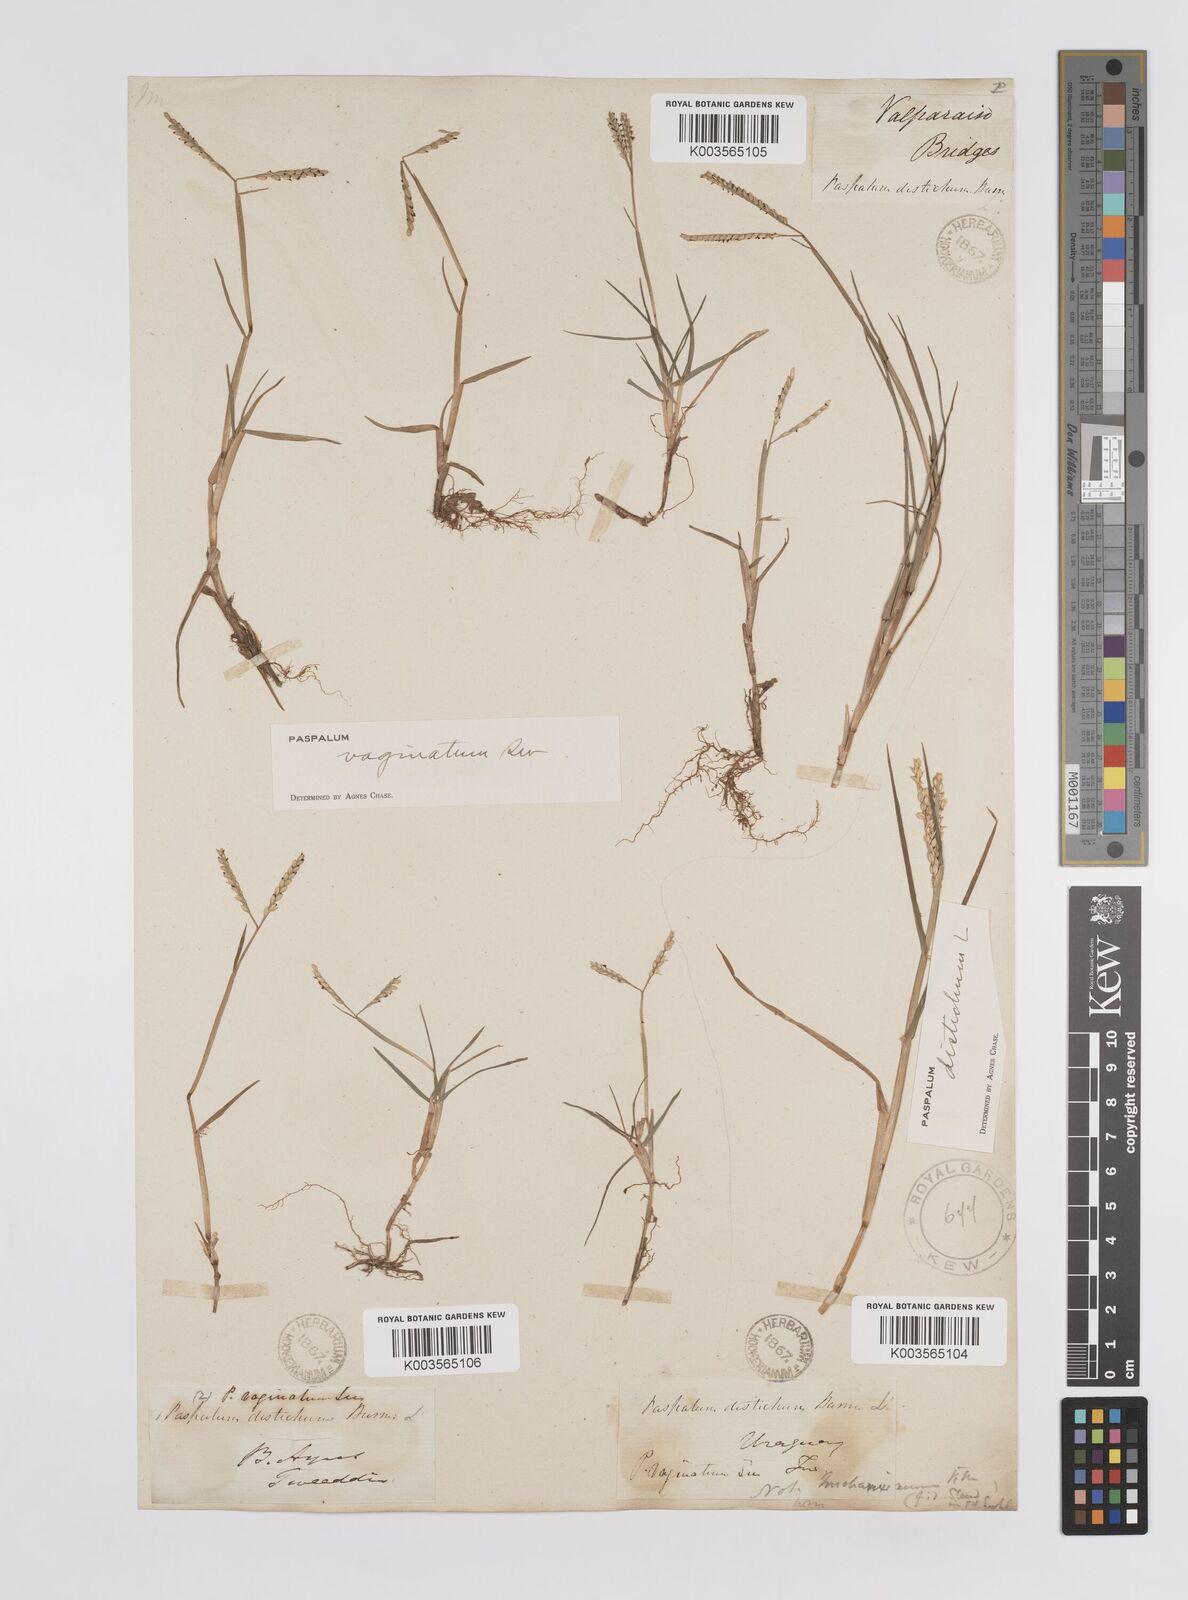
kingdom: Plantae
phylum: Tracheophyta
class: Liliopsida
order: Poales
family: Poaceae
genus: Paspalum
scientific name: Paspalum vaginatum
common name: Seashore paspalum
